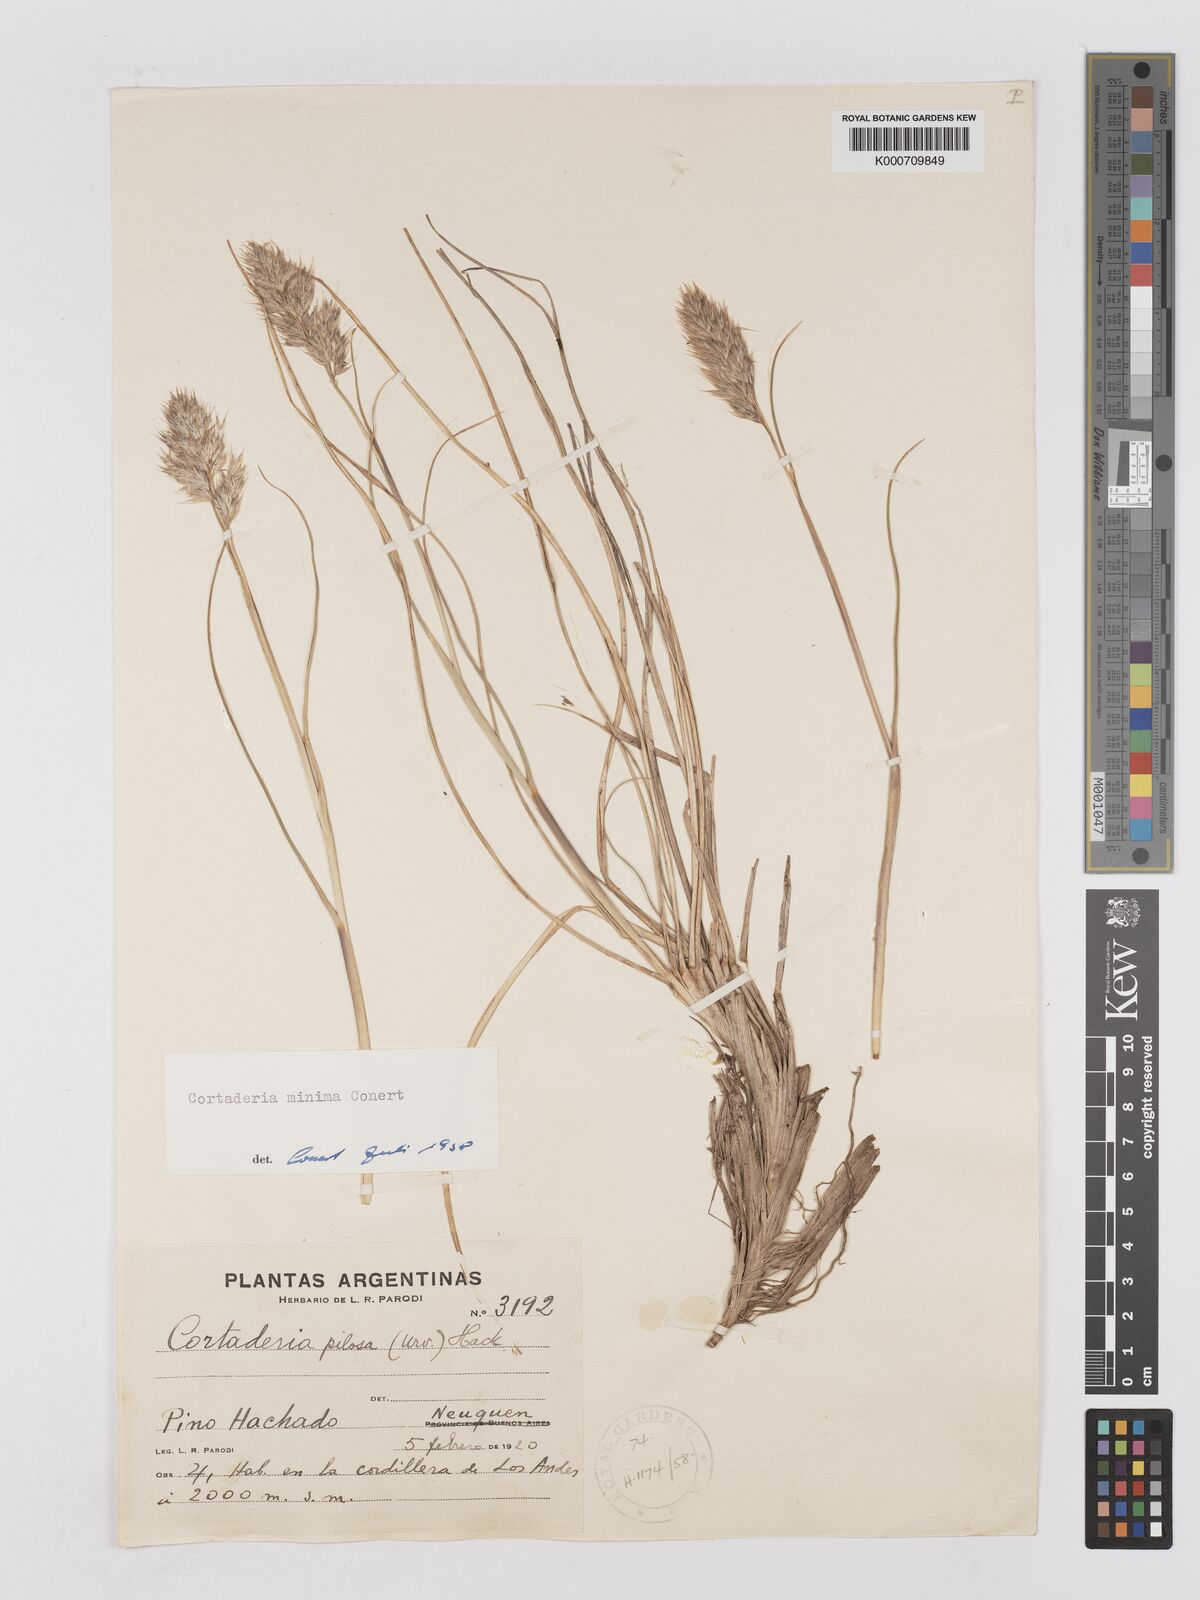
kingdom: Plantae
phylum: Tracheophyta
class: Liliopsida
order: Poales
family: Poaceae
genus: Cortaderia
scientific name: Cortaderia
